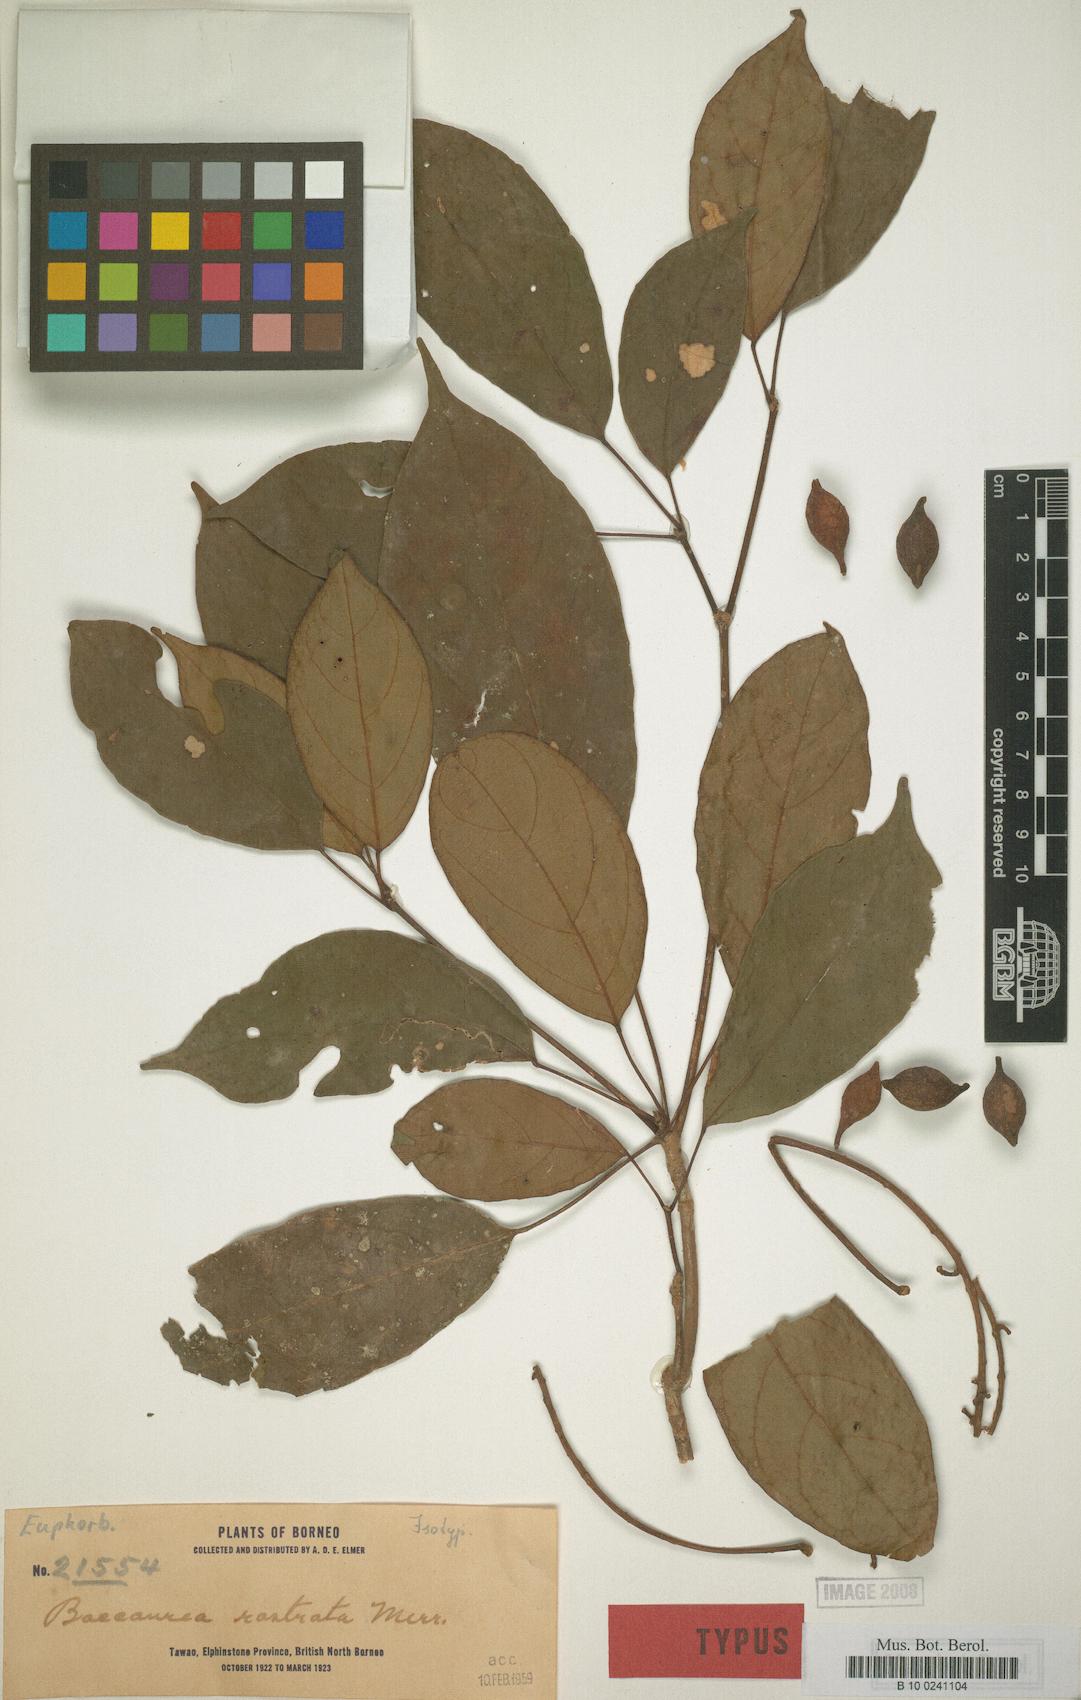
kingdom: Plantae
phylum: Tracheophyta
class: Magnoliopsida
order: Malpighiales
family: Phyllanthaceae
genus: Baccaurea
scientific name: Baccaurea parviflora
